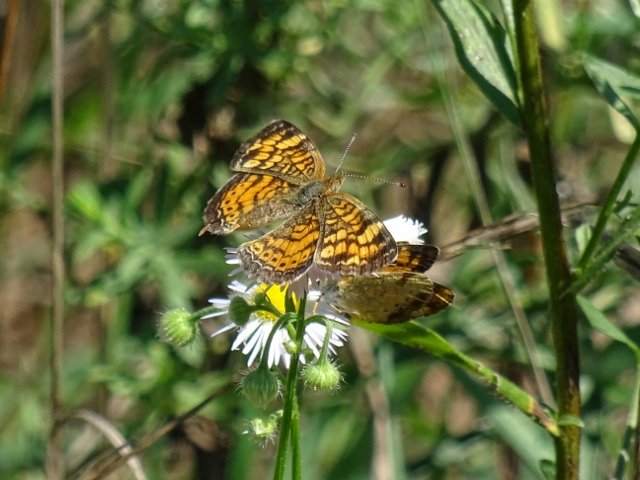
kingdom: Animalia
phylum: Arthropoda
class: Insecta
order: Lepidoptera
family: Nymphalidae
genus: Phyciodes
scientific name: Phyciodes tharos
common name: Northern Crescent
